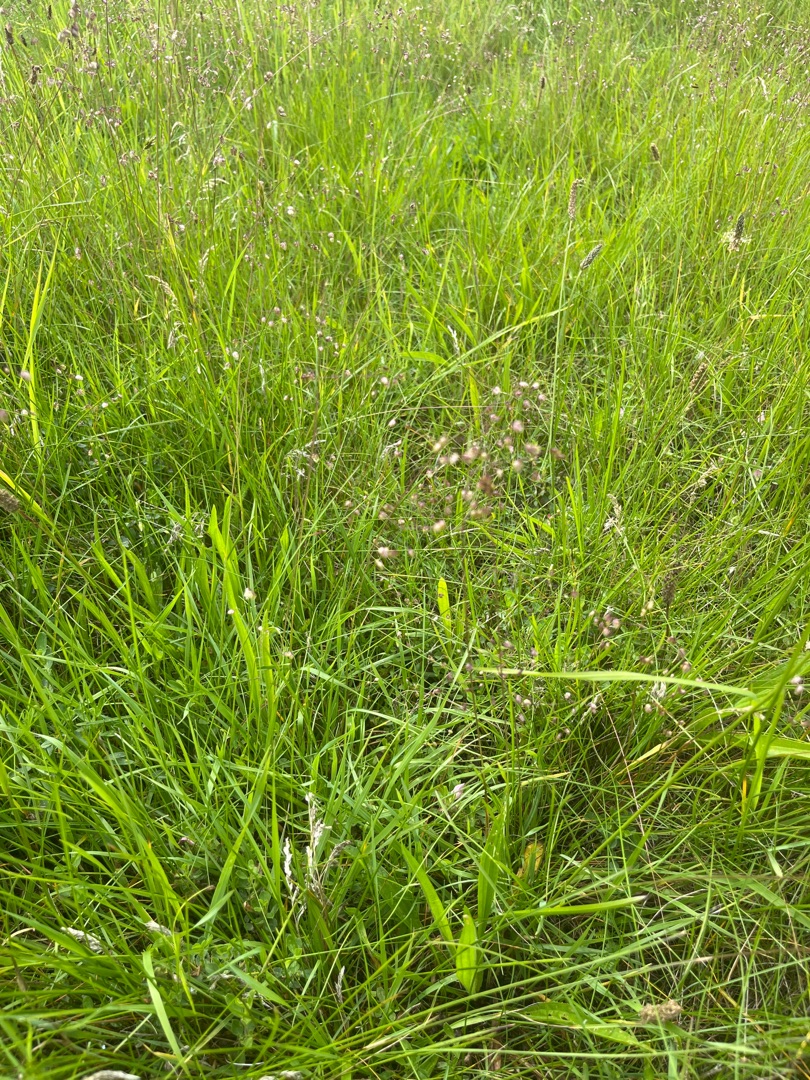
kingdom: Plantae
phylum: Tracheophyta
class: Liliopsida
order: Poales
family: Poaceae
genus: Briza
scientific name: Briza media
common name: Hjertegræs
